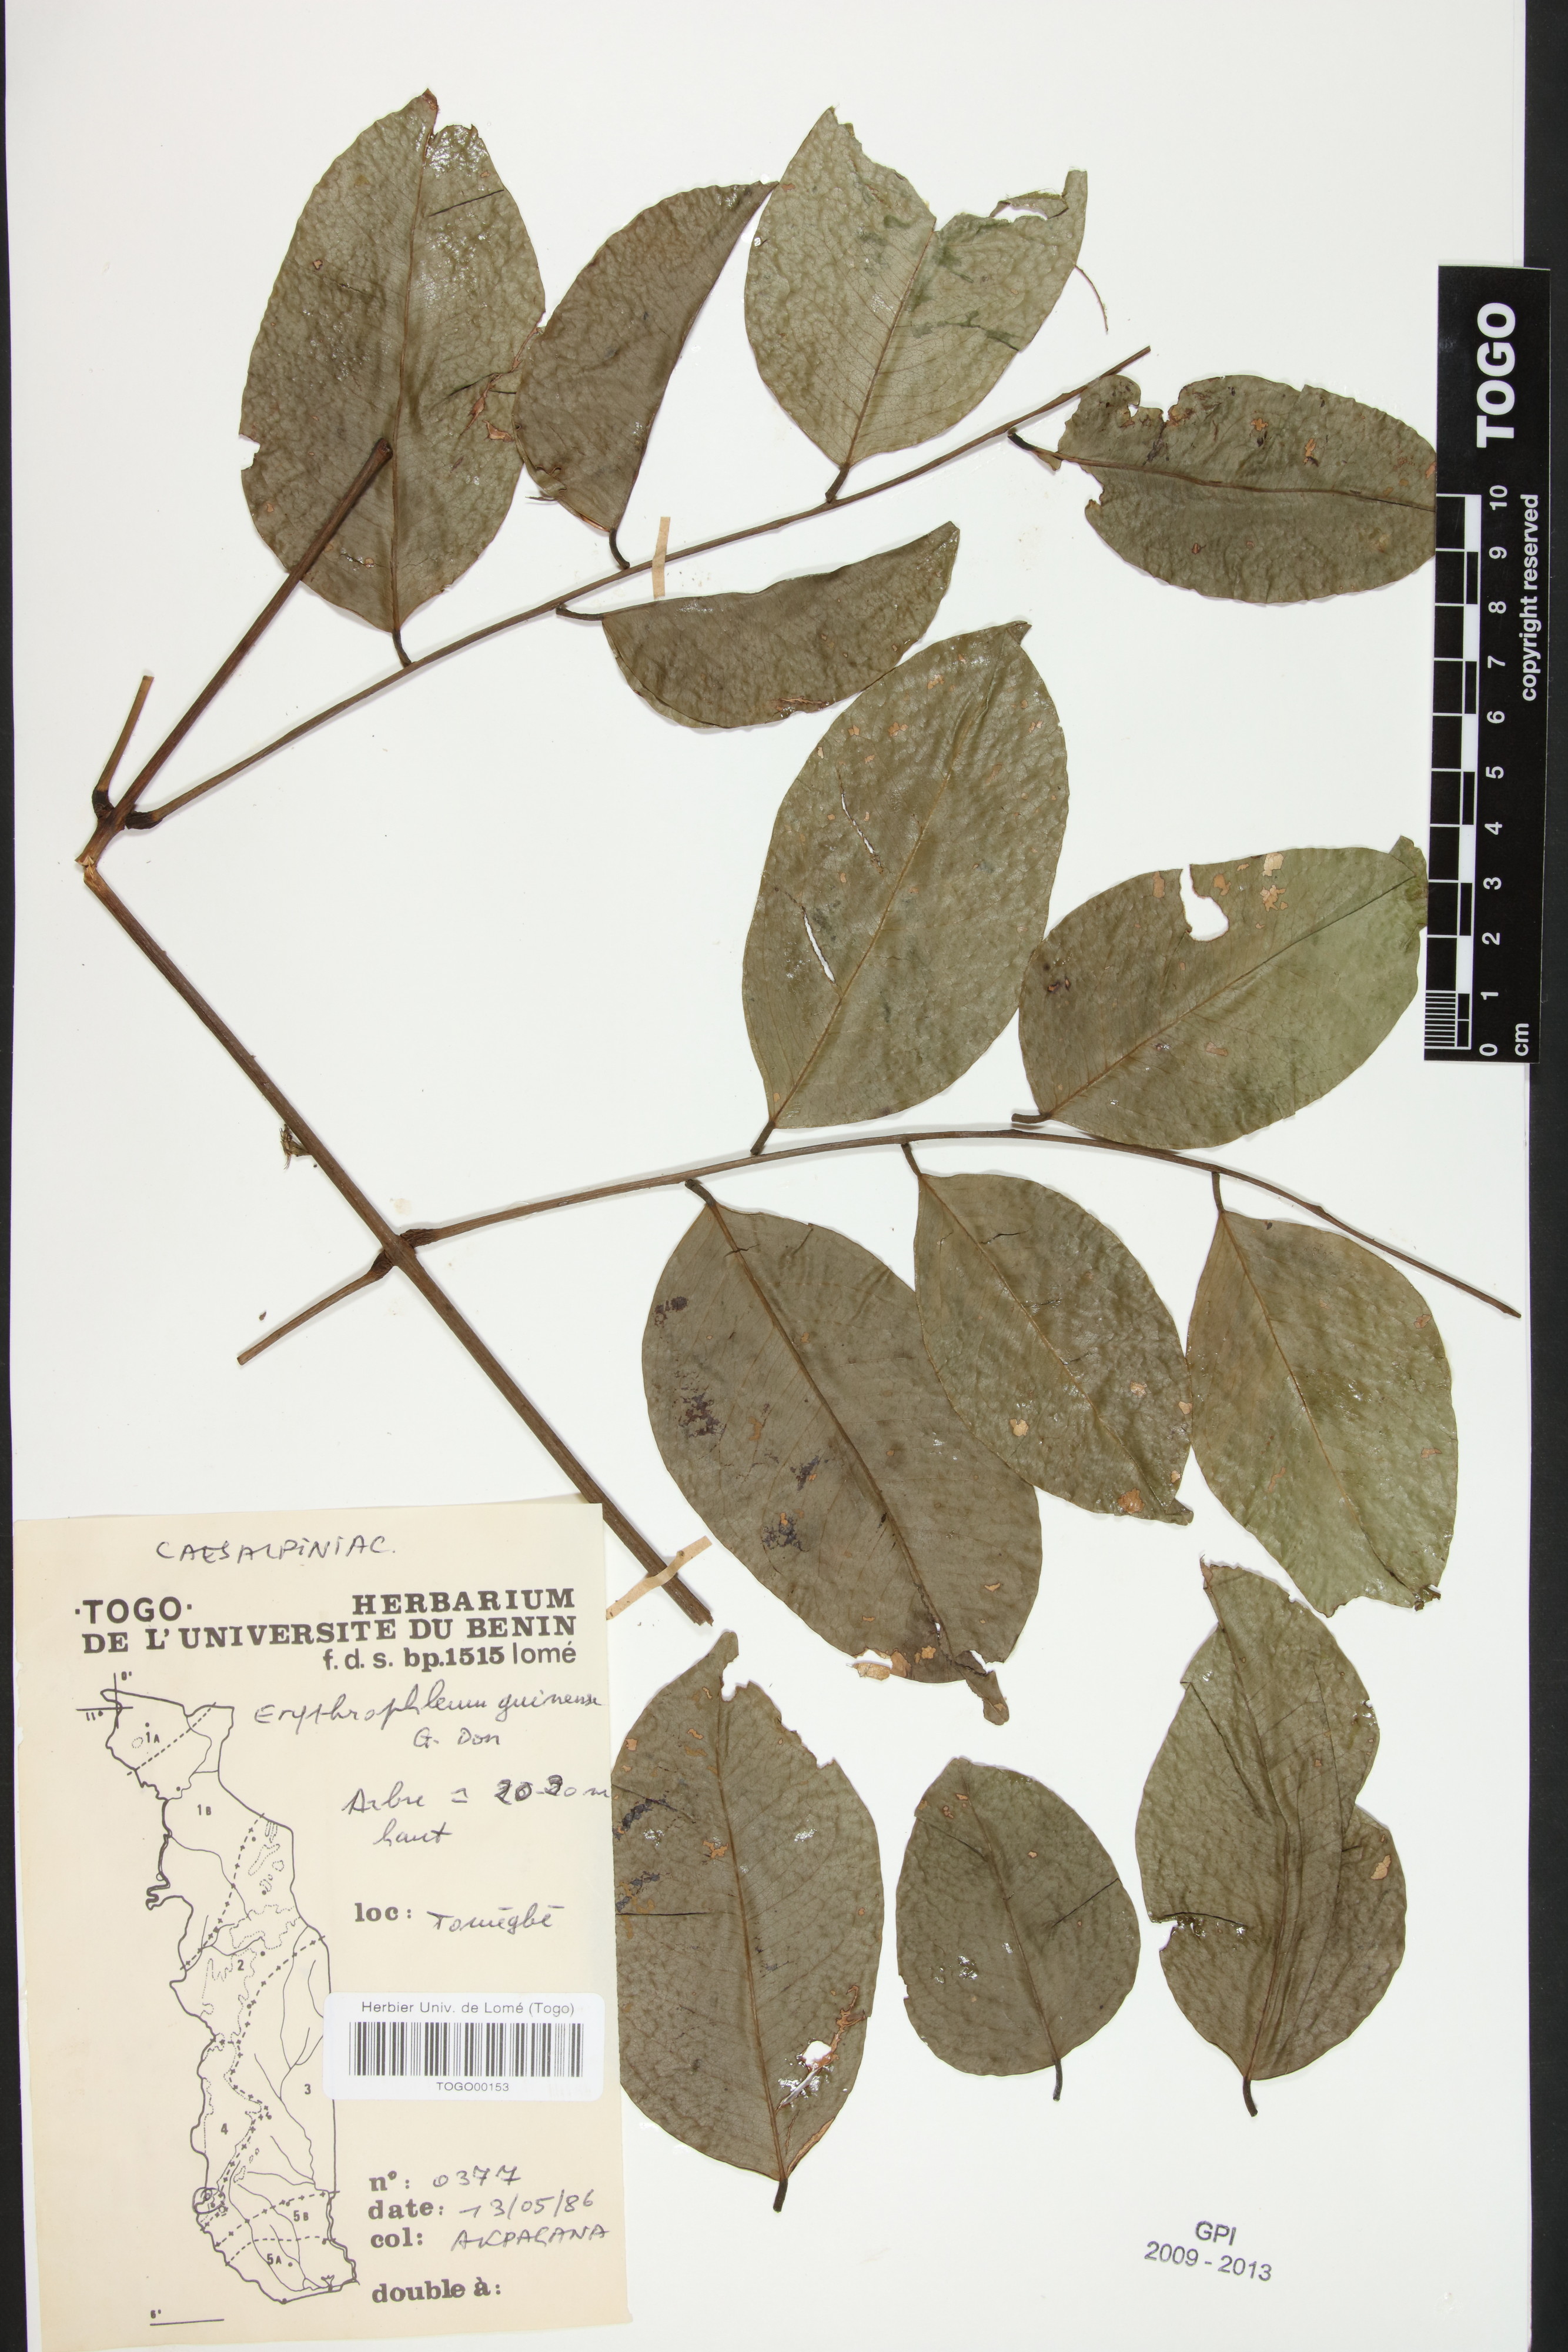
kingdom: Plantae
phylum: Tracheophyta
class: Magnoliopsida
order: Fabales
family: Fabaceae
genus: Erythrophleum
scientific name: Erythrophleum suaveolens
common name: Ordeal tree
